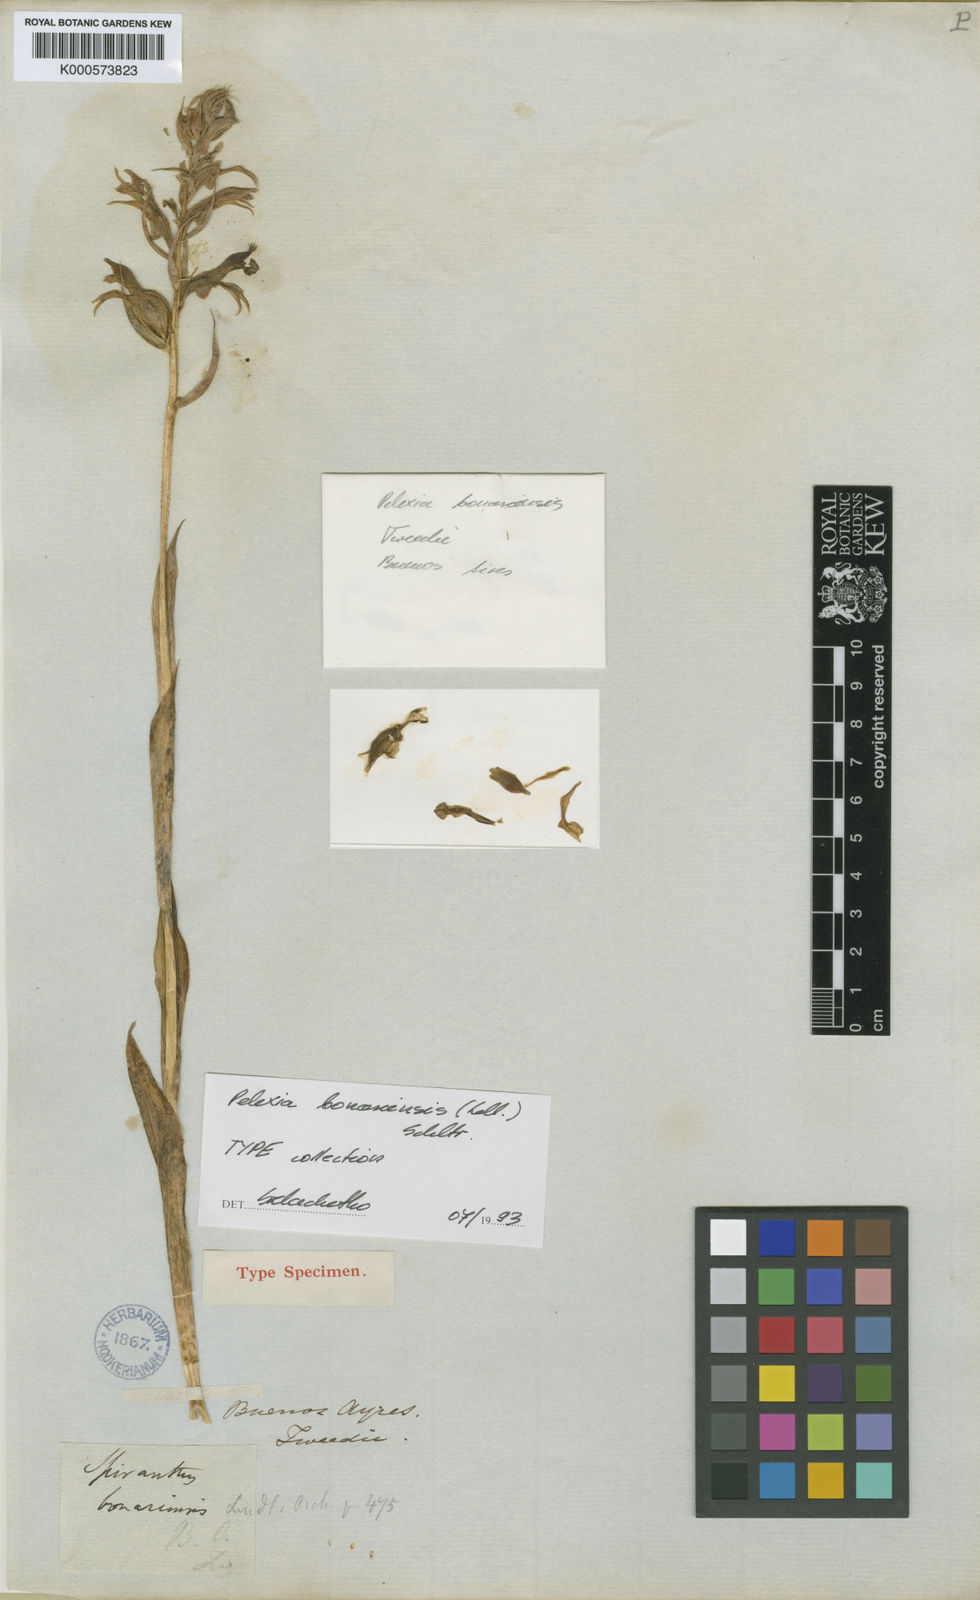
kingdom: Plantae
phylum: Tracheophyta
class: Liliopsida
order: Asparagales
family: Orchidaceae
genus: Pelexia
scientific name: Pelexia bonariensis
